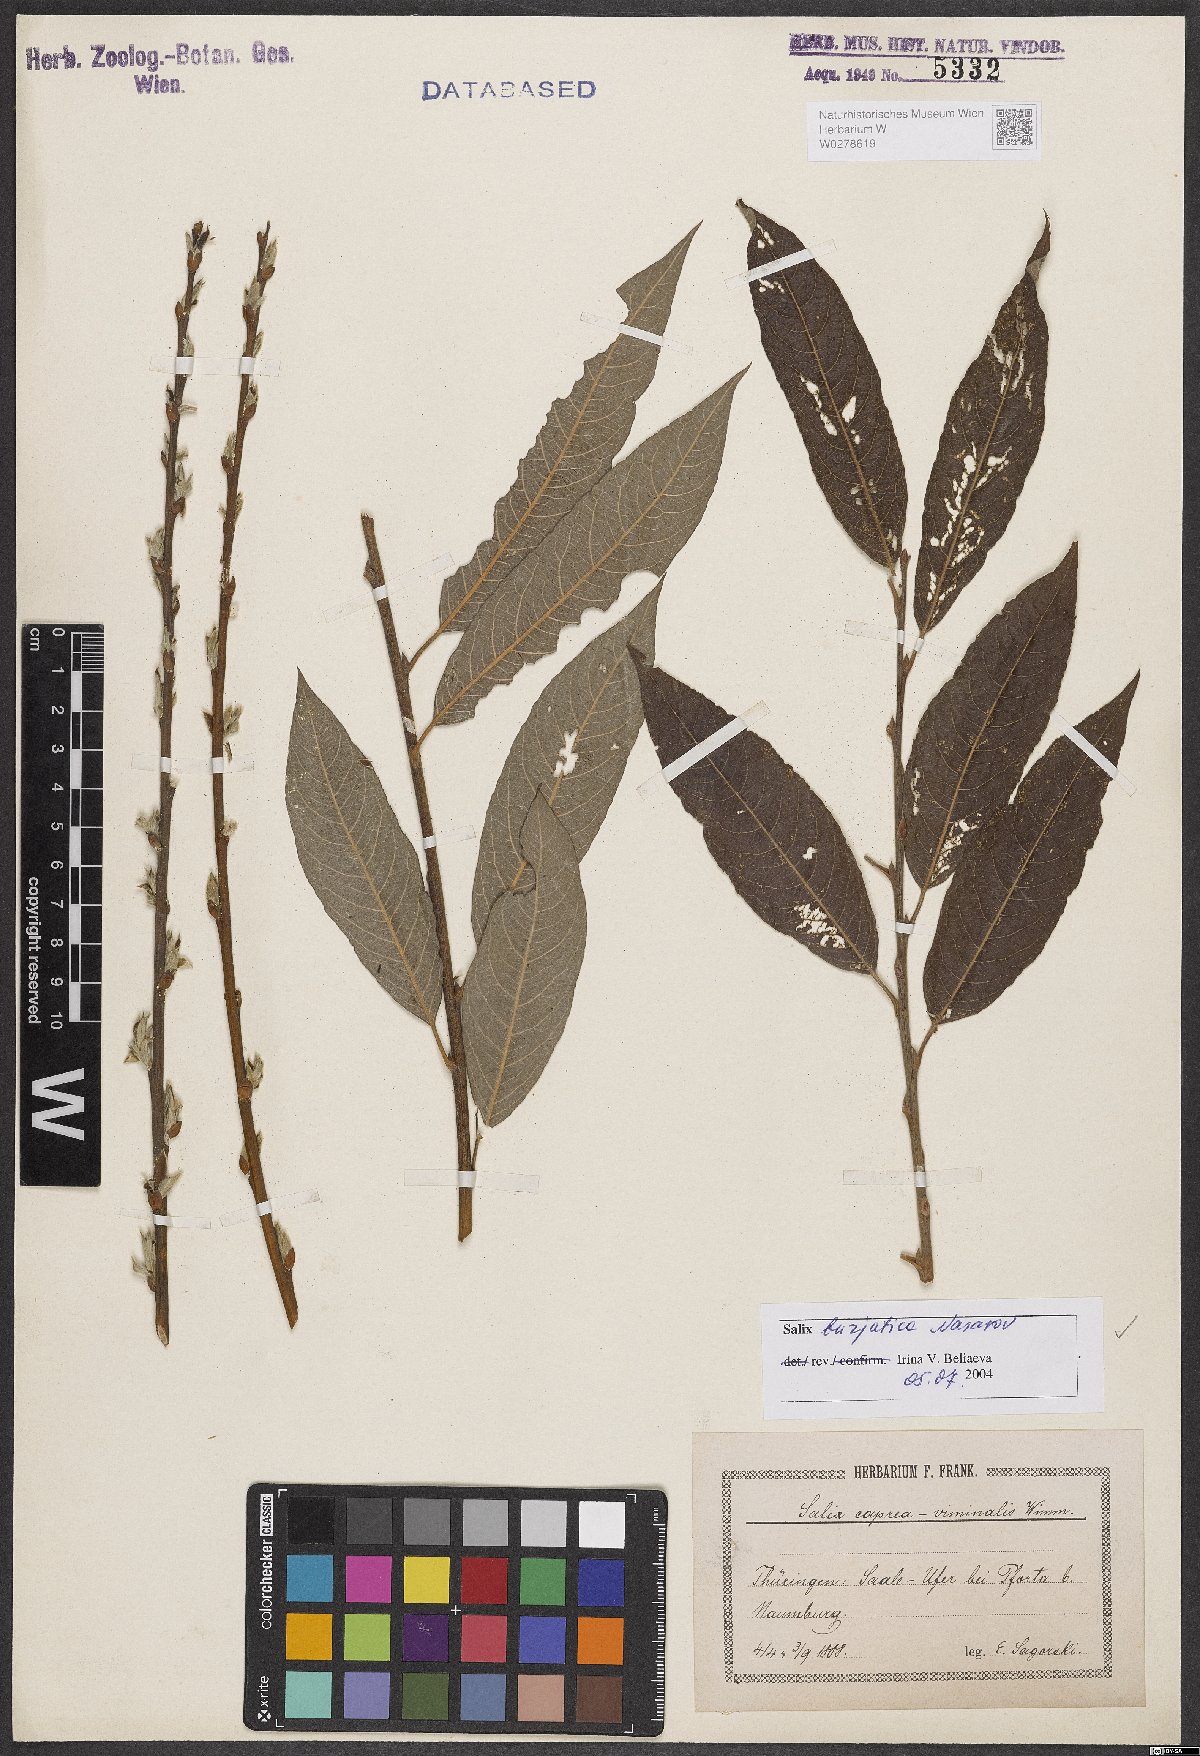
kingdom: Plantae
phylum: Tracheophyta
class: Magnoliopsida
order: Malpighiales
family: Salicaceae
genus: Salix
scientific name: Salix gmelinii
